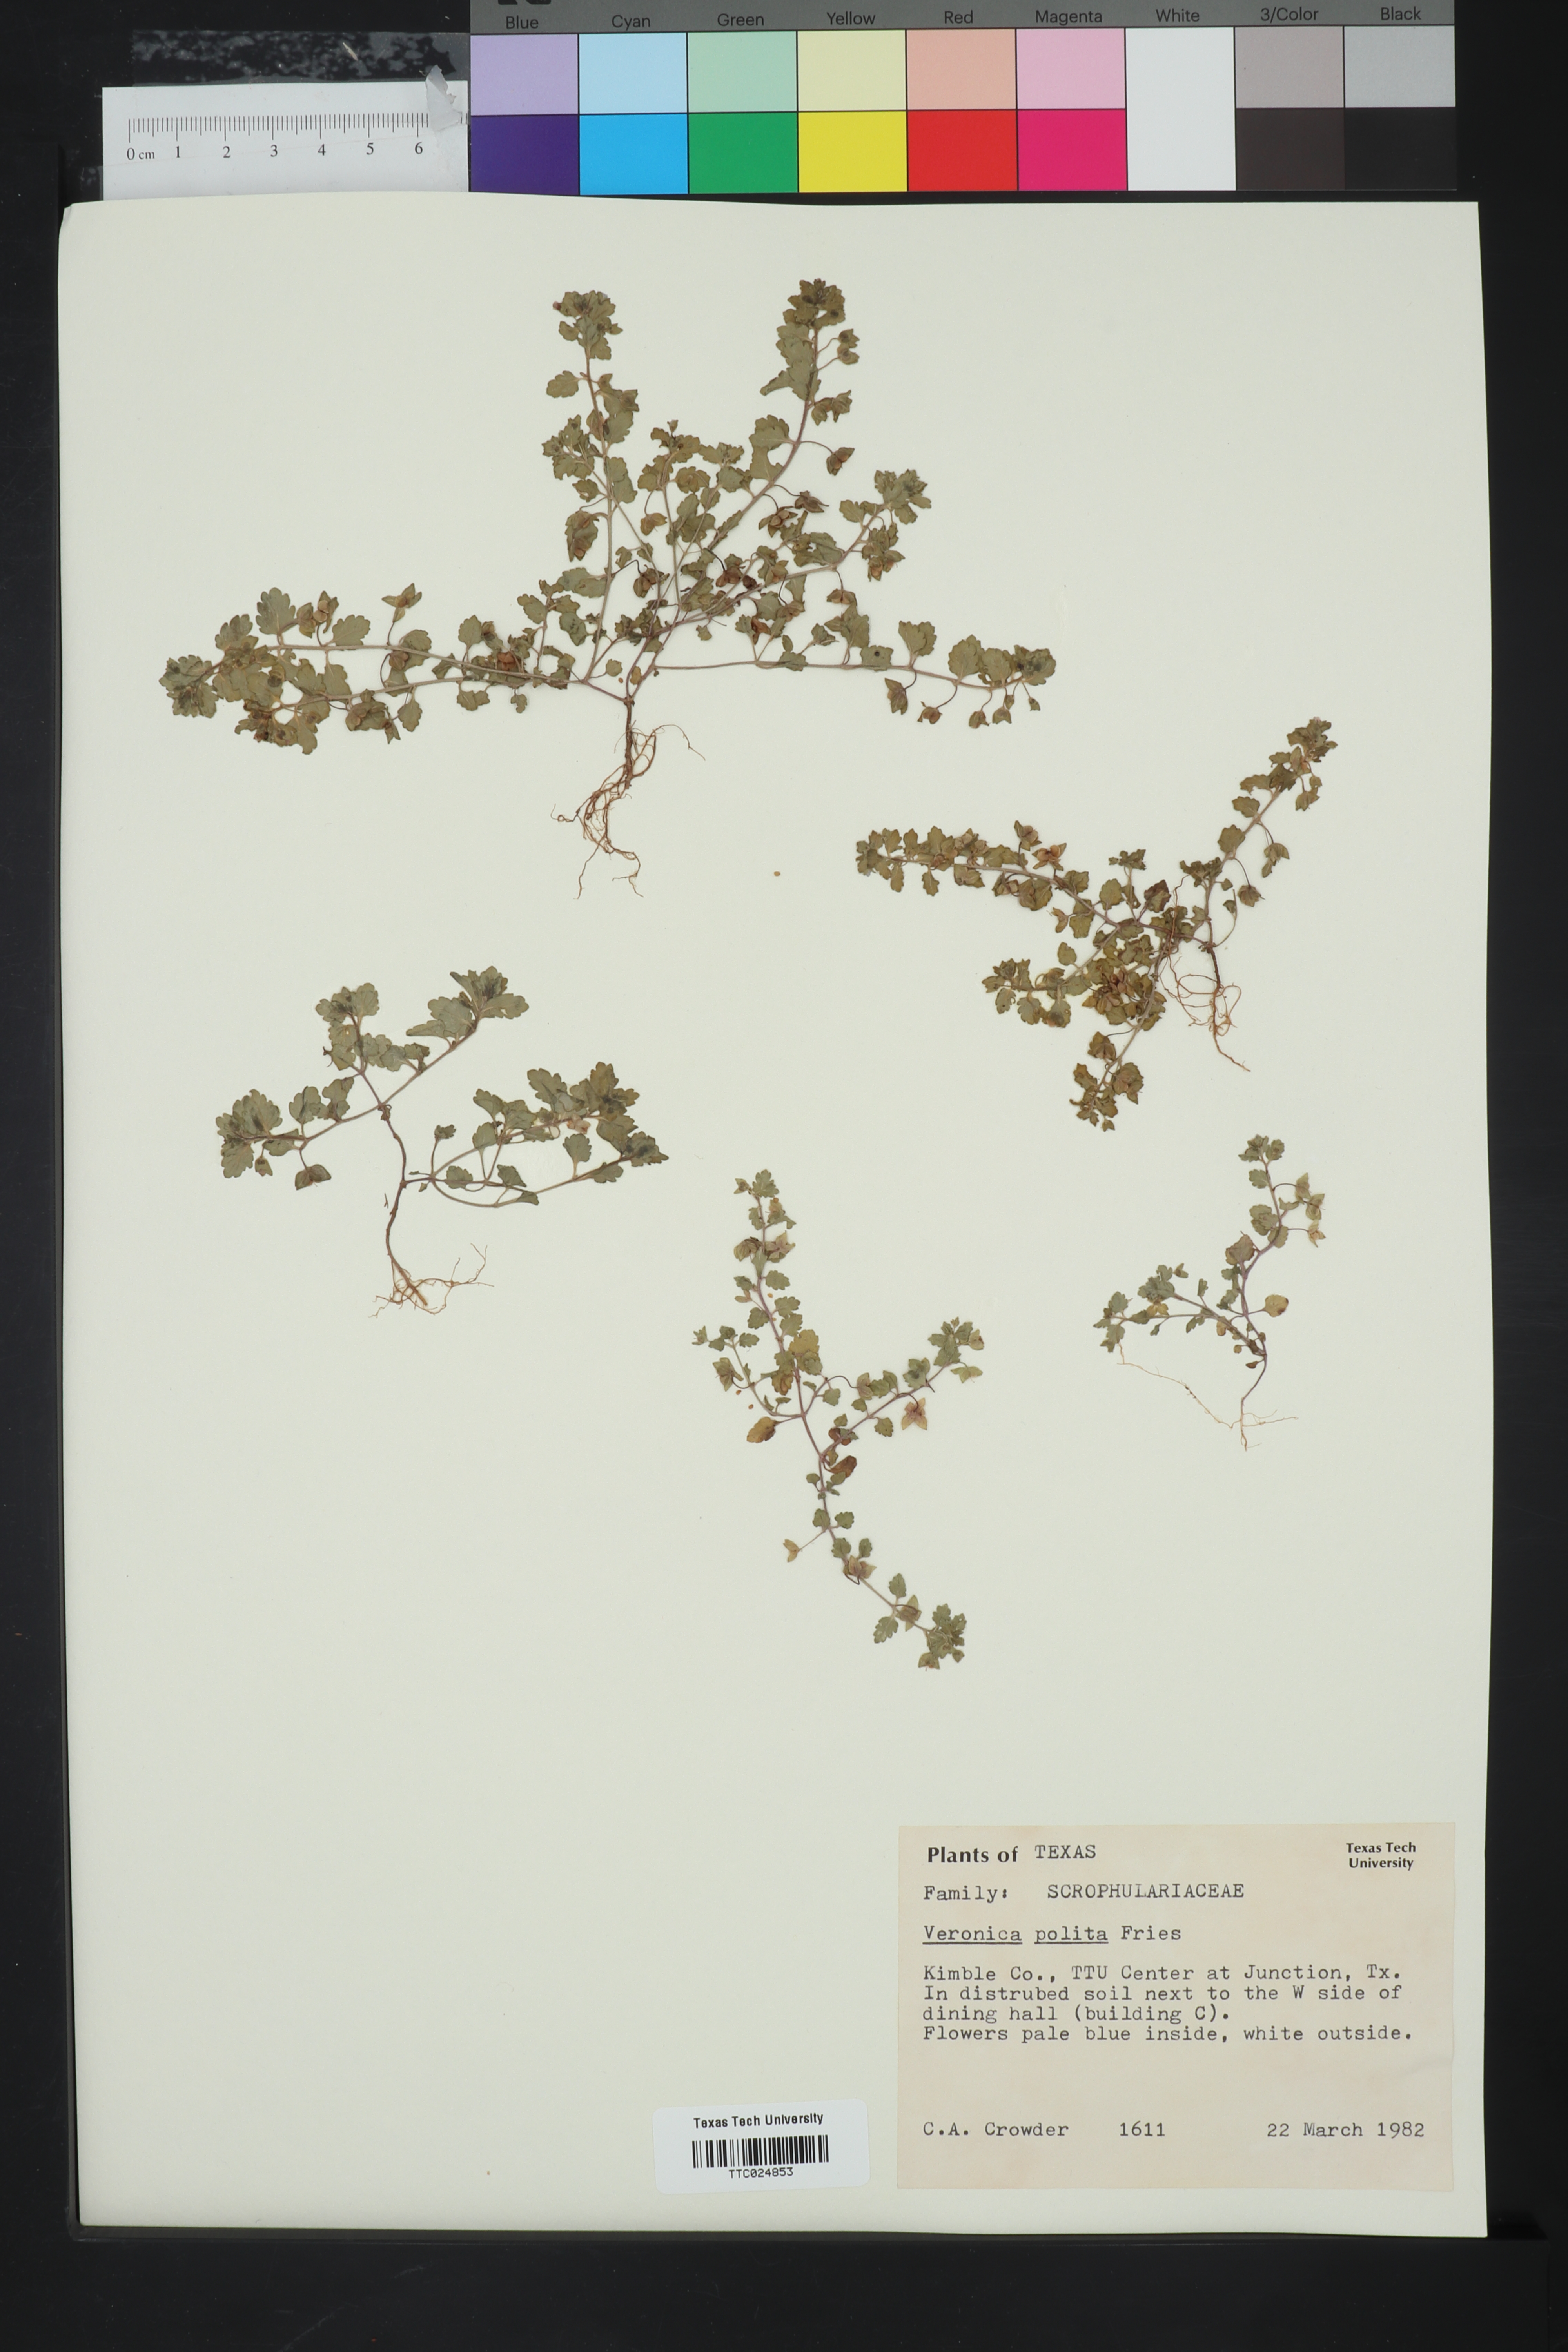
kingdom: Plantae
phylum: Tracheophyta
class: Magnoliopsida
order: Lamiales
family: Plantaginaceae
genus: Veronica
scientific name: Veronica polita
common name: Grey field-speedwell
